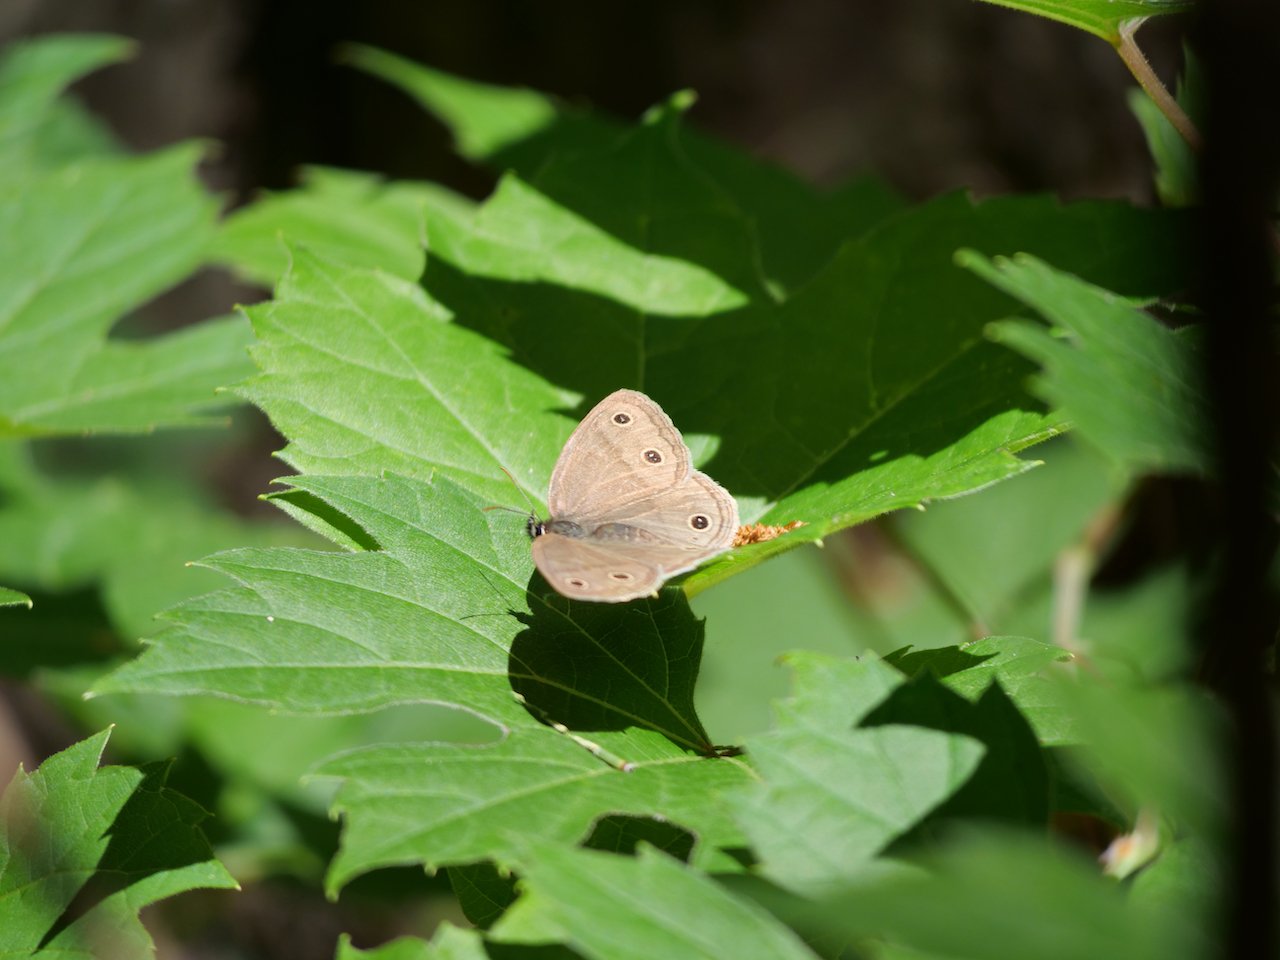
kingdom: Animalia
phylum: Arthropoda
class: Insecta
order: Lepidoptera
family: Nymphalidae
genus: Euptychia
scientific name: Euptychia cymela
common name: Little Wood Satyr
